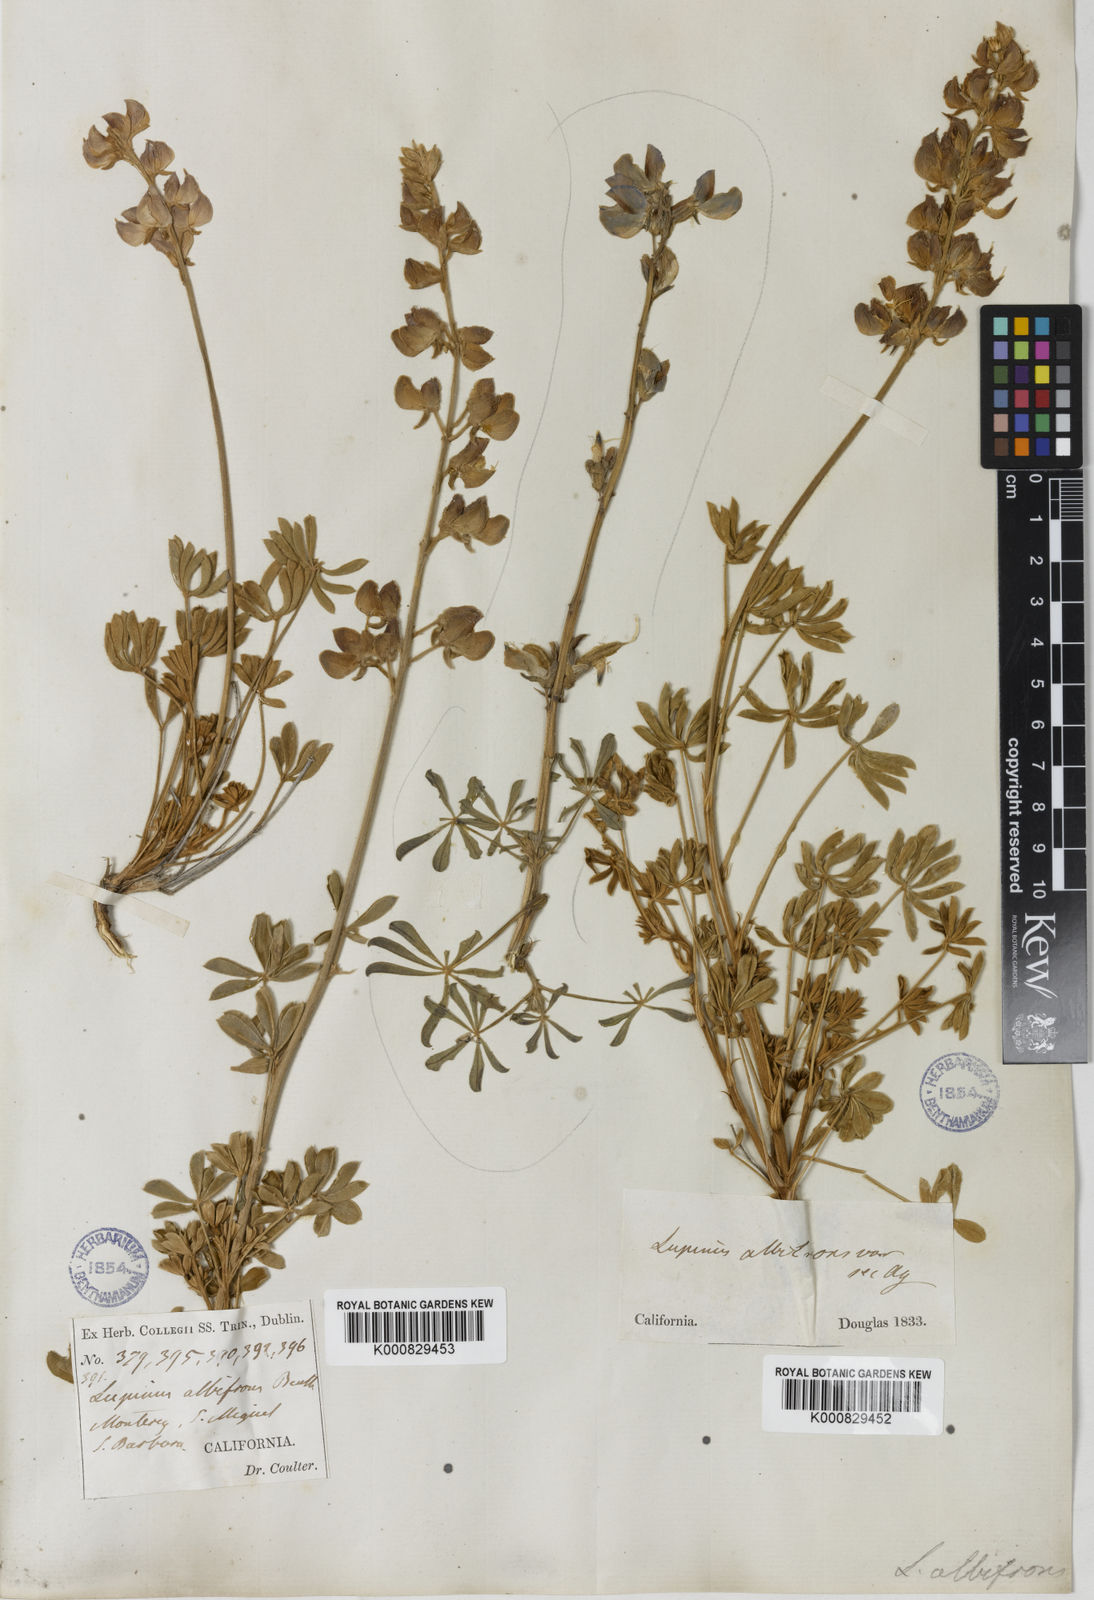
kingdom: Plantae
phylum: Tracheophyta
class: Magnoliopsida
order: Fabales
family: Fabaceae
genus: Lupinus
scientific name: Lupinus albifrons
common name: Foothill lupine
